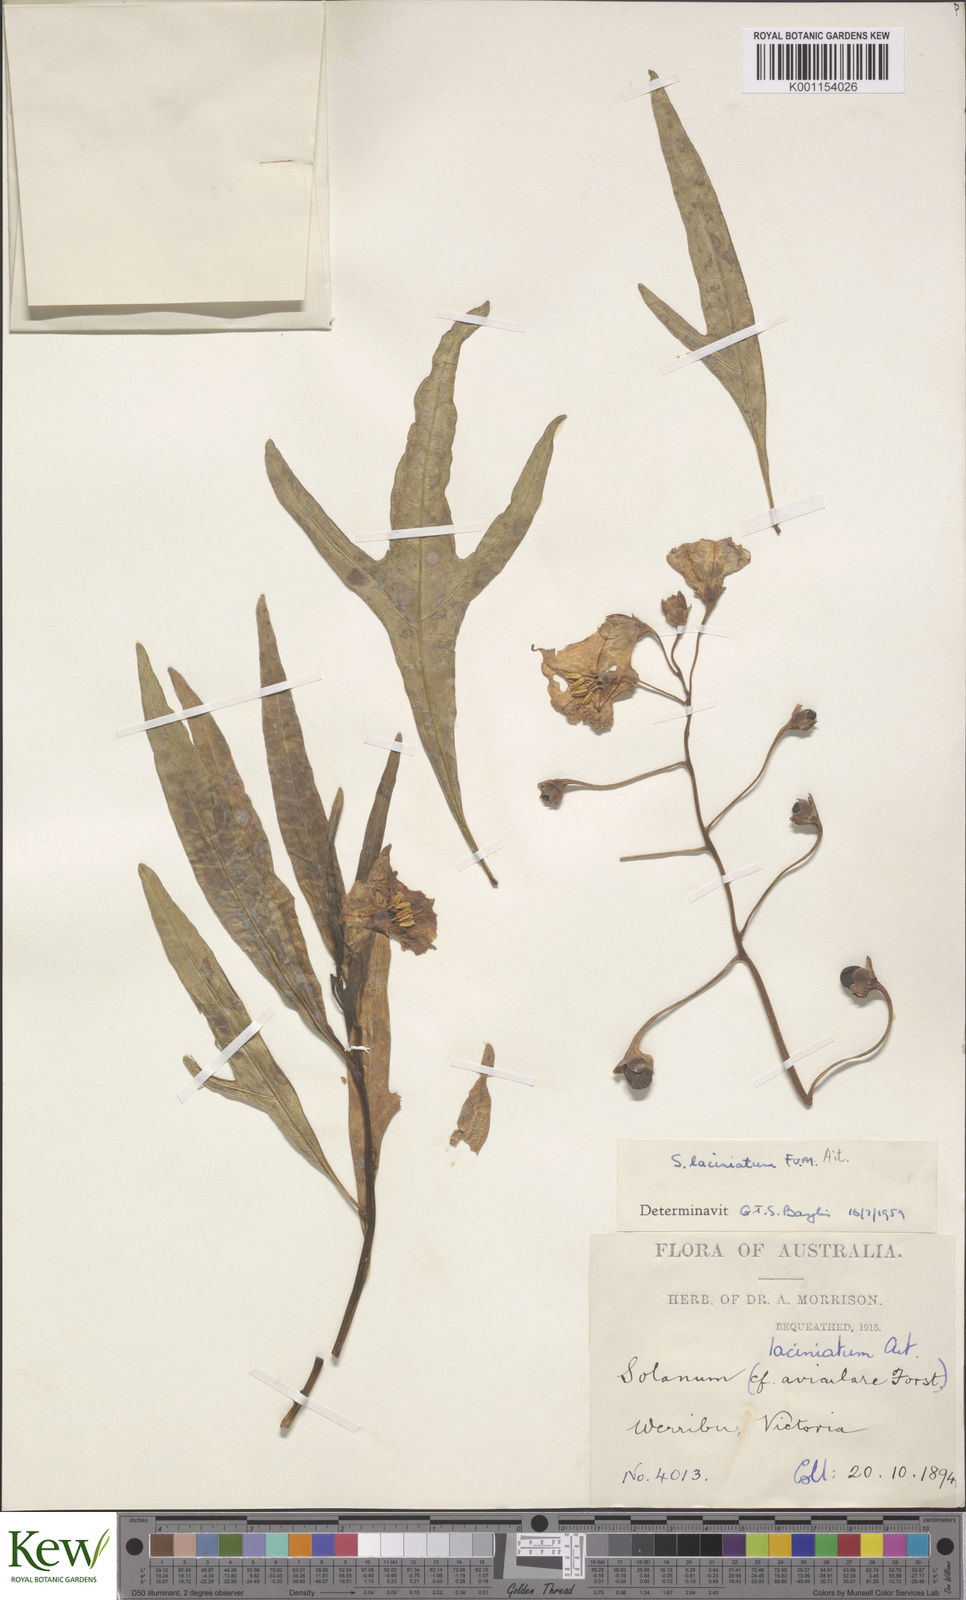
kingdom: Plantae
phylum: Tracheophyta
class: Magnoliopsida
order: Solanales
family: Solanaceae
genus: Solanum
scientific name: Solanum laciniatum
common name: Kangaroo-apple
